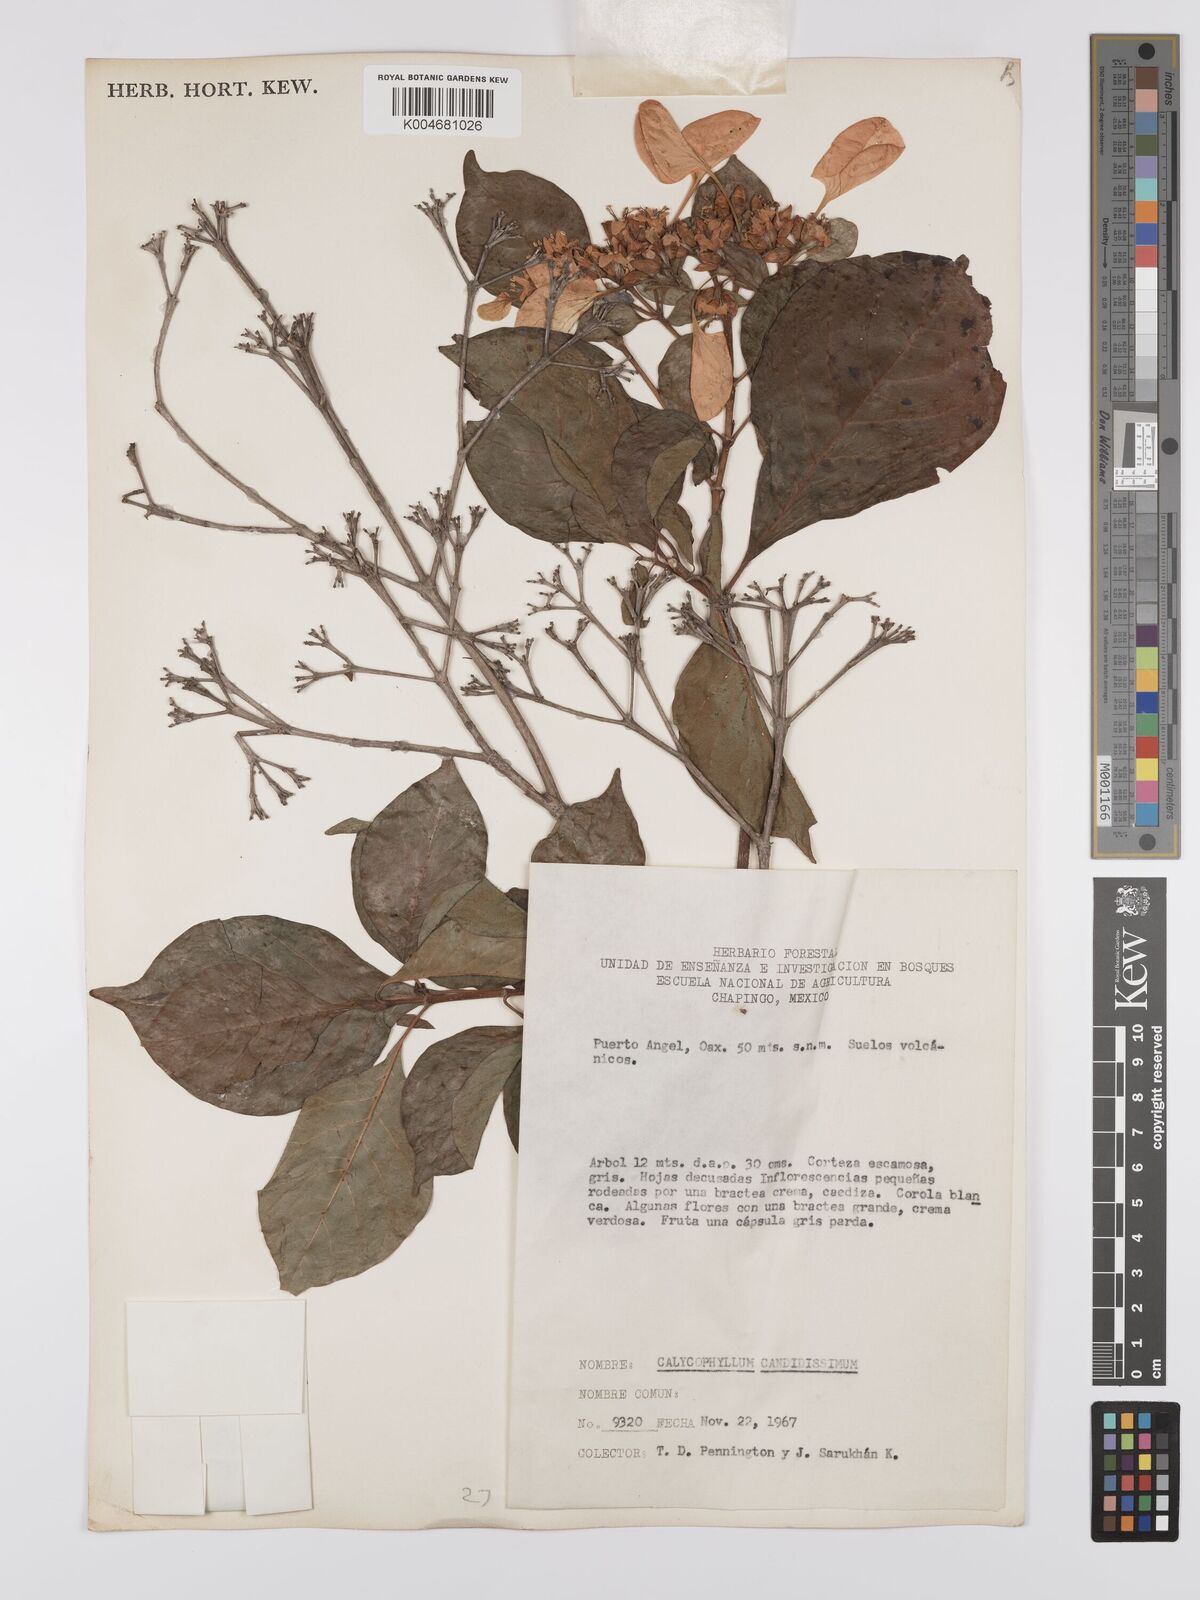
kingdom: Plantae
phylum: Tracheophyta
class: Magnoliopsida
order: Gentianales
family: Rubiaceae
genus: Calycophyllum
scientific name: Calycophyllum candidissimum
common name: Dagame
